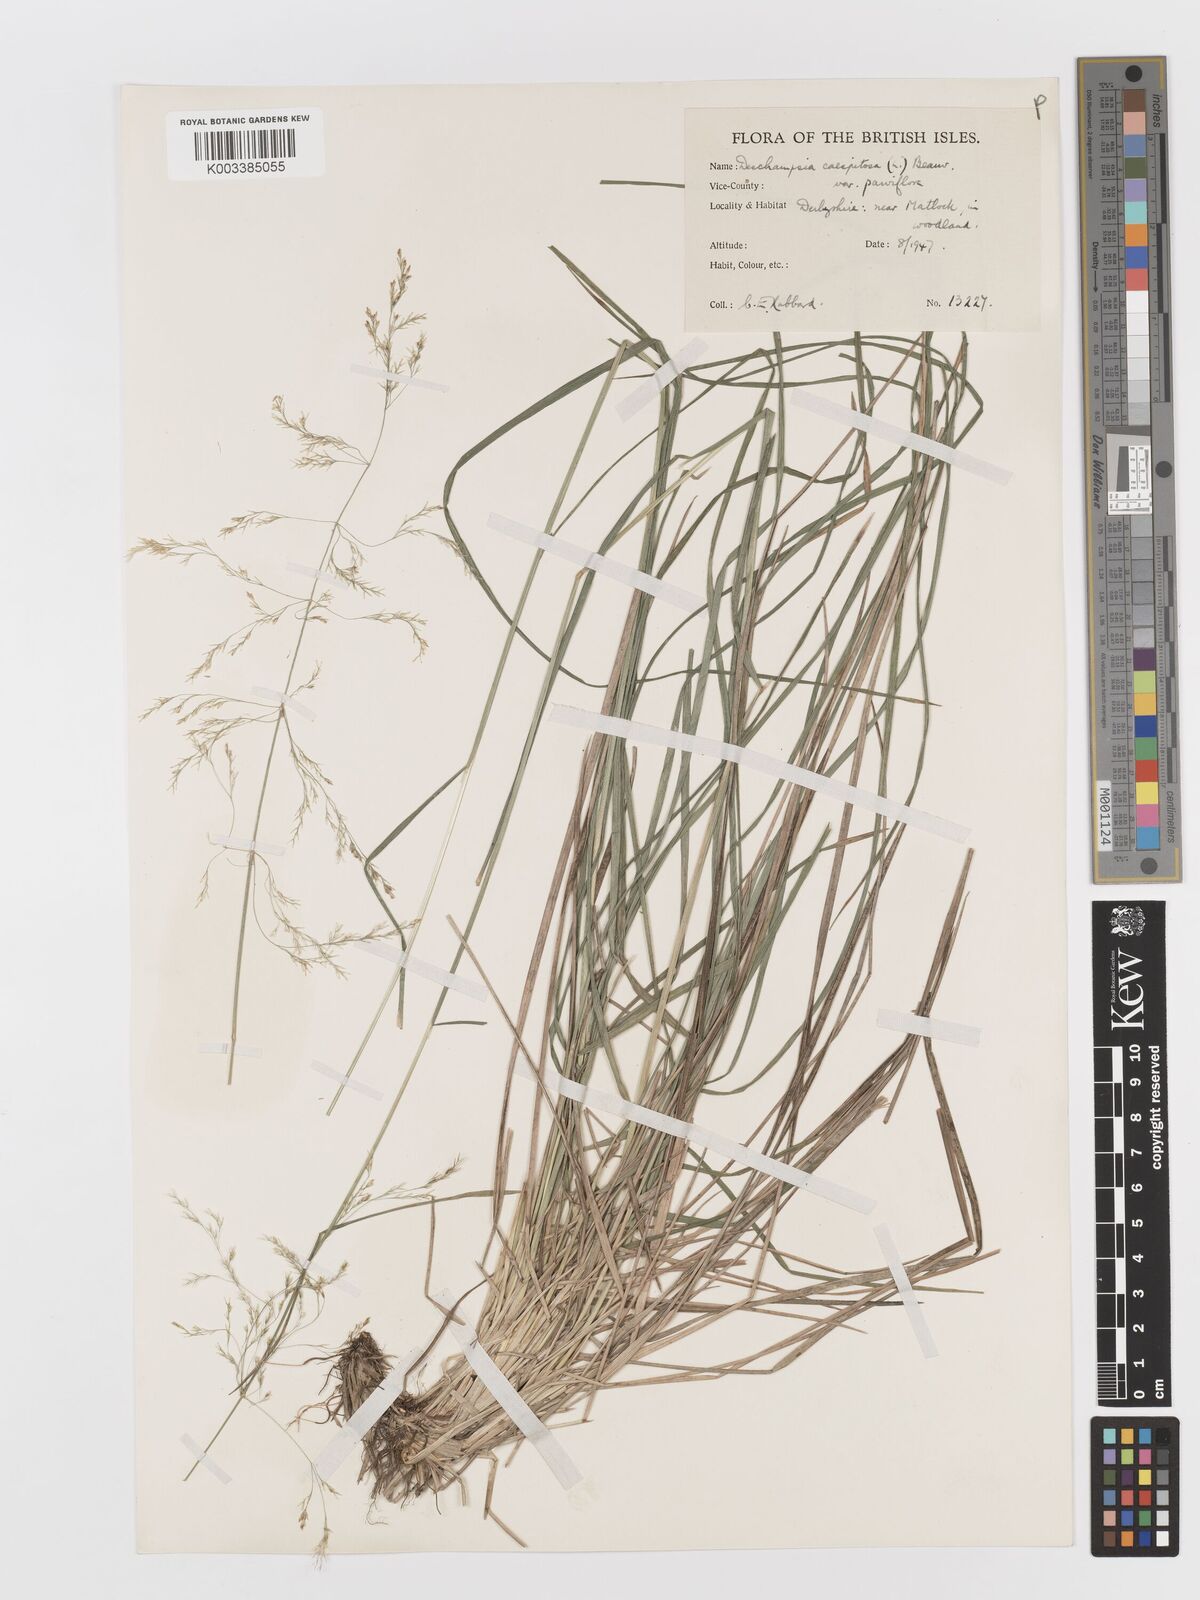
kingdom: Plantae
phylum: Tracheophyta
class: Liliopsida
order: Poales
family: Poaceae
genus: Deschampsia
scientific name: Deschampsia cespitosa
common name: Tufted hair-grass
